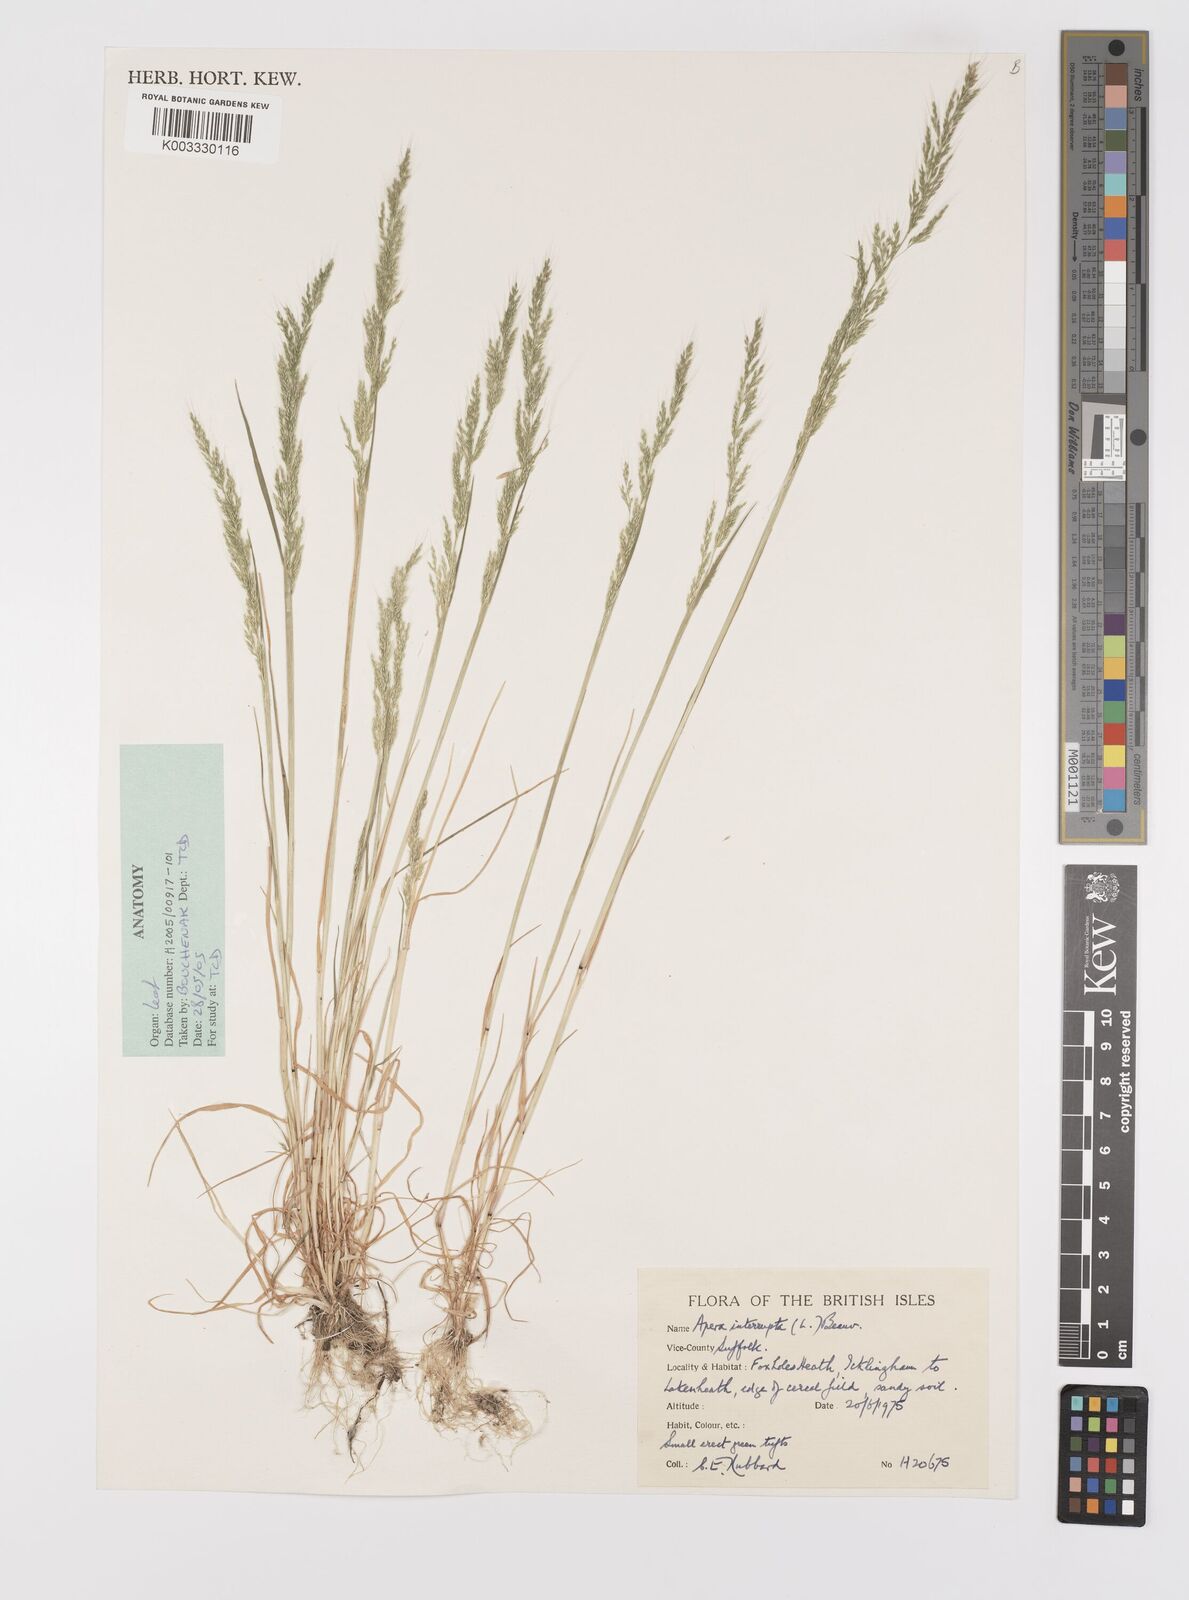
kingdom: Plantae
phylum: Tracheophyta
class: Liliopsida
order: Poales
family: Poaceae
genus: Apera
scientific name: Apera interrupta
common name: Dense silky-bent
